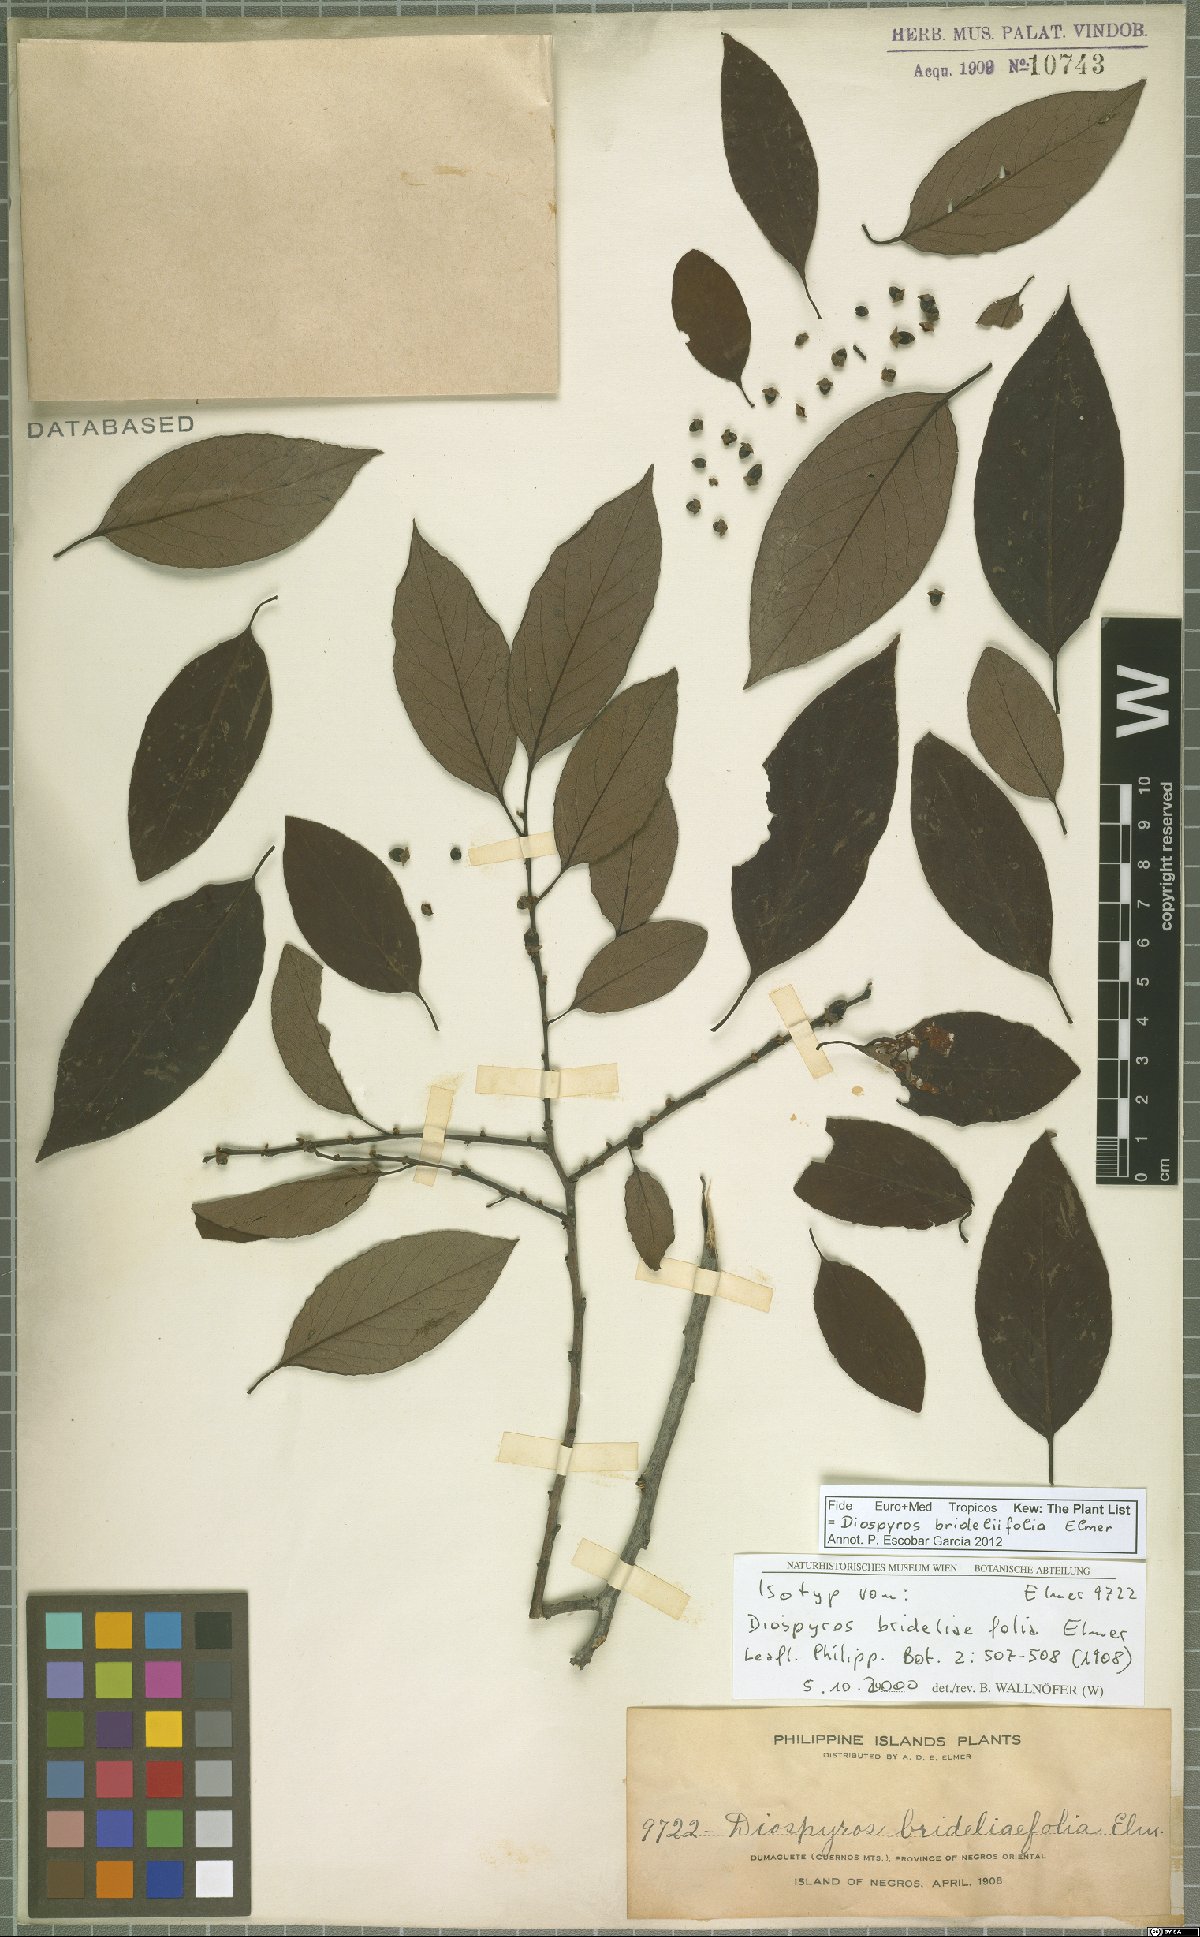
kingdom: Plantae
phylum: Tracheophyta
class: Magnoliopsida
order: Ericales
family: Ebenaceae
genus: Diospyros
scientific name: Diospyros brideliifolia
